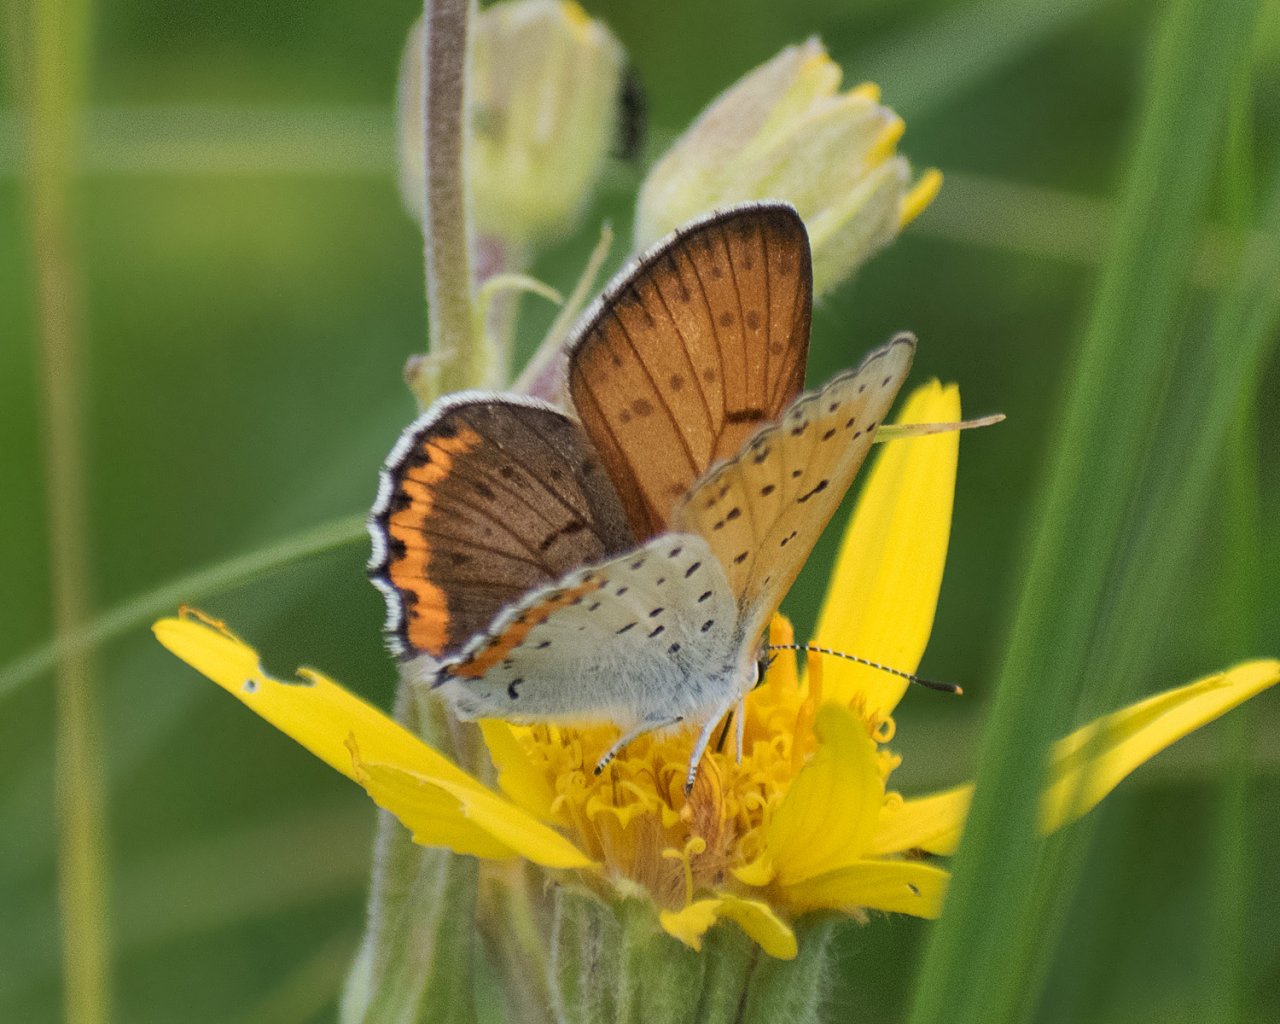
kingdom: Animalia
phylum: Arthropoda
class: Insecta
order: Lepidoptera
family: Sesiidae
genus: Sesia
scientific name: Sesia Lycaena hyllus
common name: Bronze Copper
